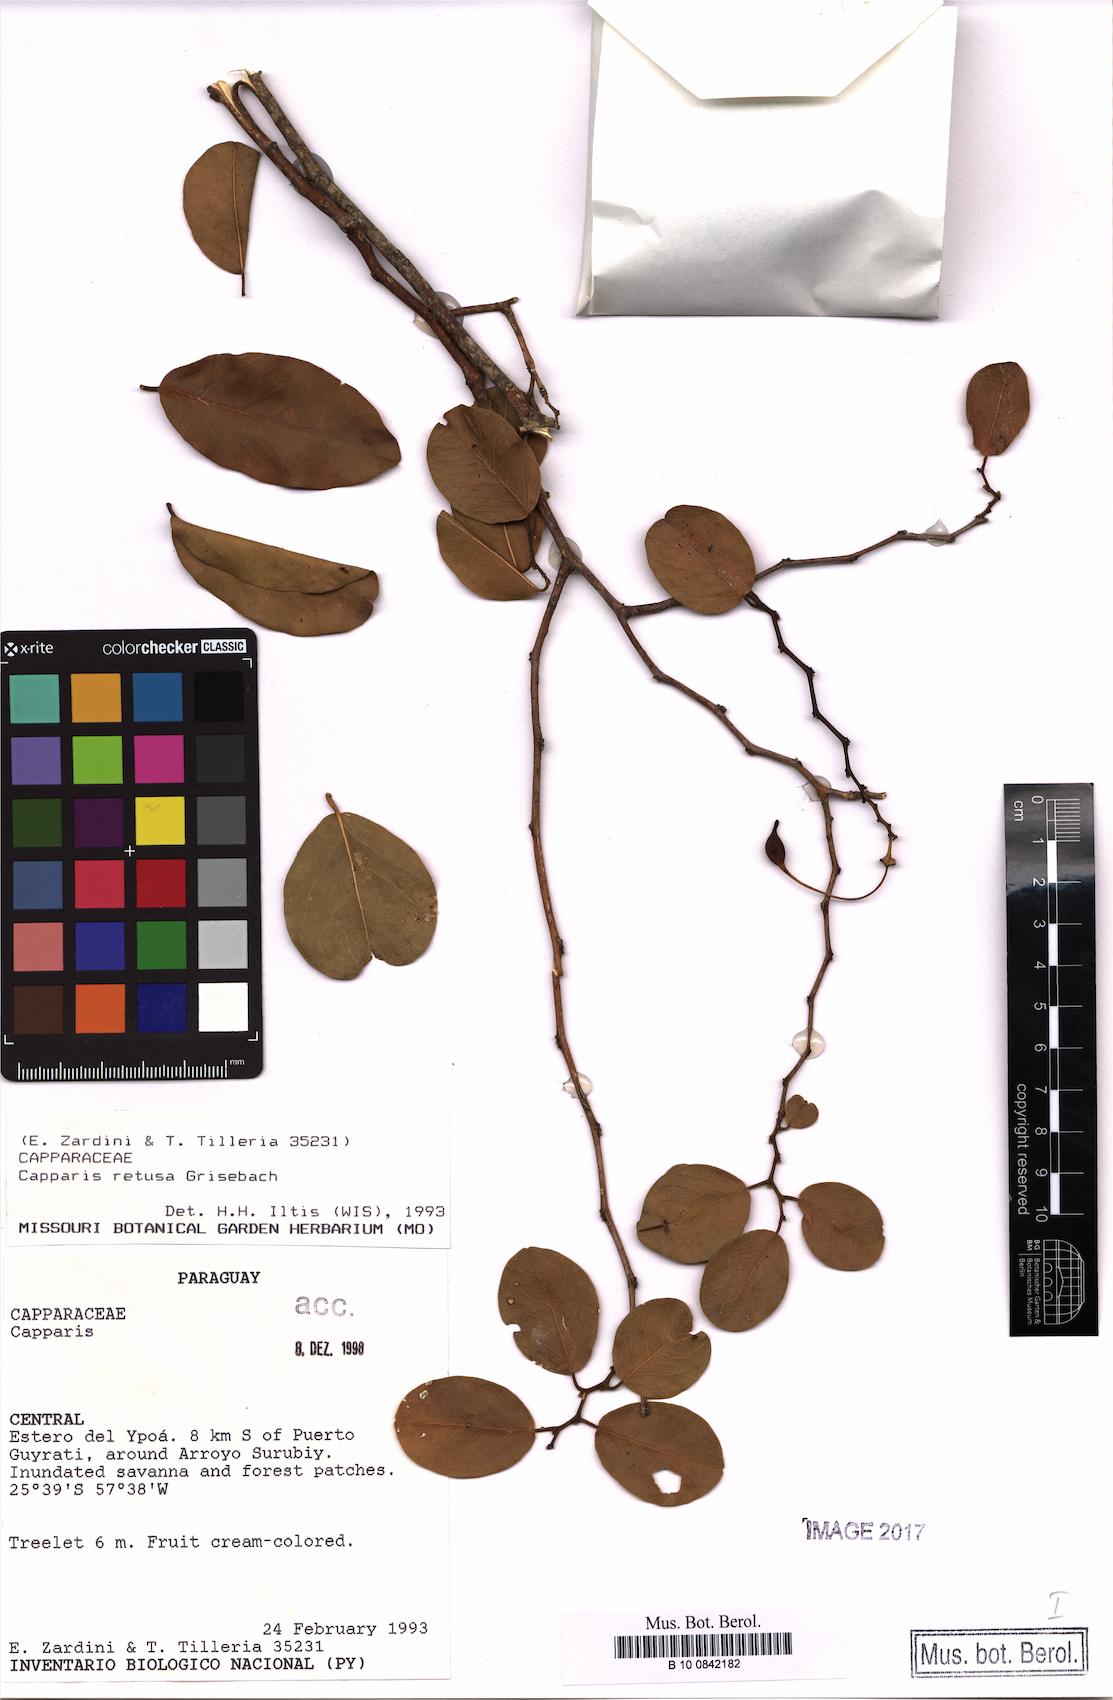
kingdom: Plantae
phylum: Tracheophyta
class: Magnoliopsida
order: Brassicales
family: Capparaceae
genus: Cynophalla
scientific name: Cynophalla retusa
